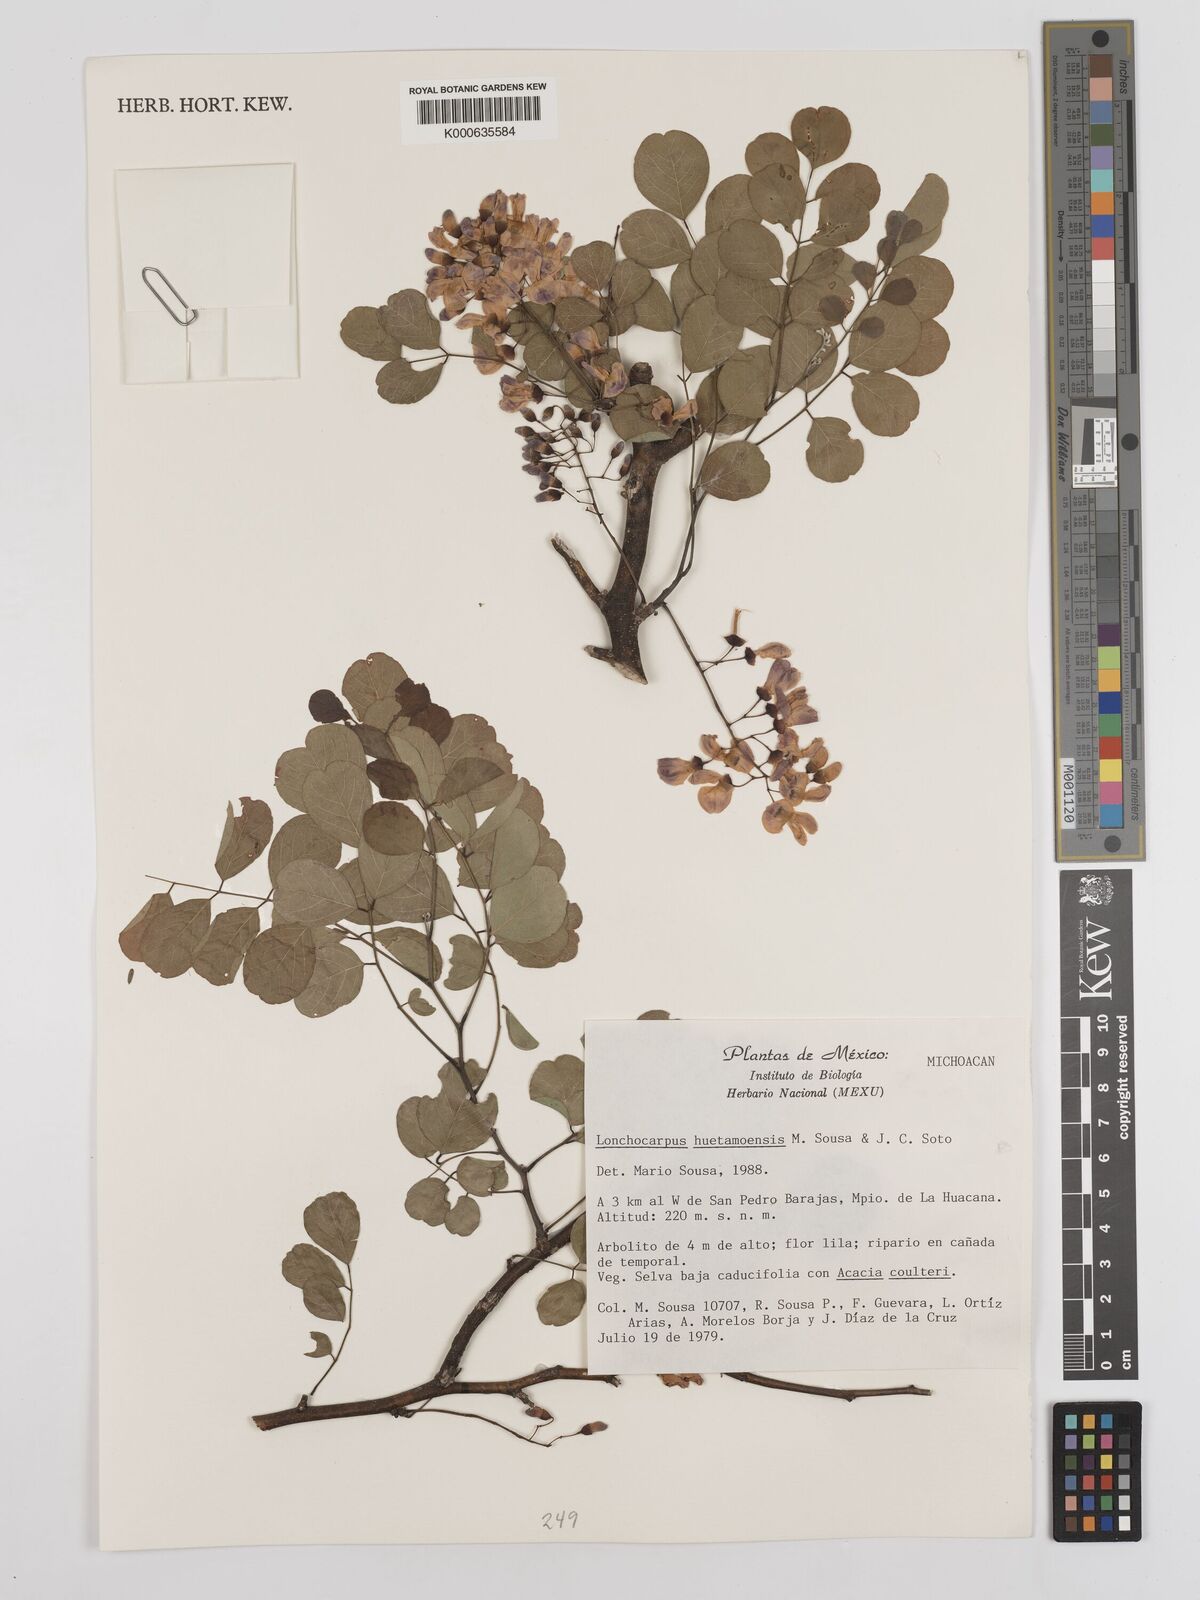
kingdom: Plantae
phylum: Tracheophyta
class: Magnoliopsida
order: Fabales
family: Fabaceae
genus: Lonchocarpus
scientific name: Lonchocarpus huetamoensis
